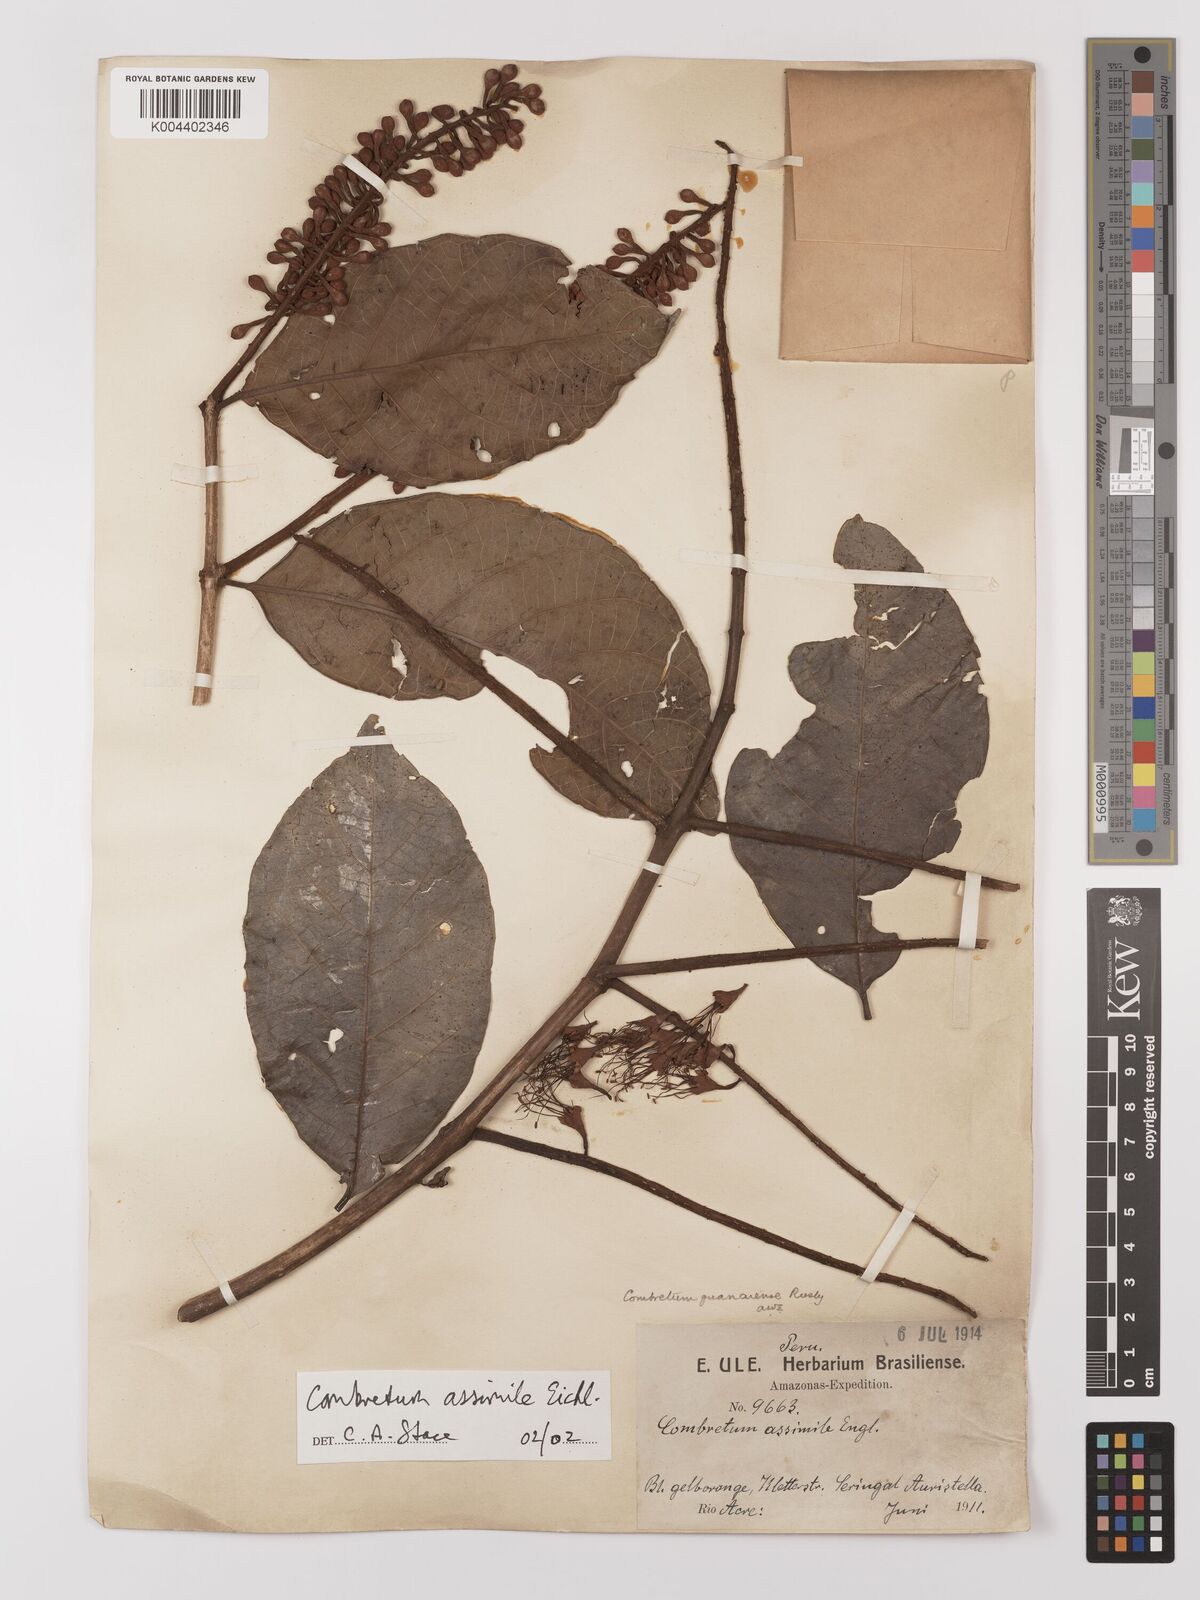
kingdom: Plantae
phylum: Tracheophyta
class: Magnoliopsida
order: Myrtales
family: Combretaceae
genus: Combretum
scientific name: Combretum assimile
